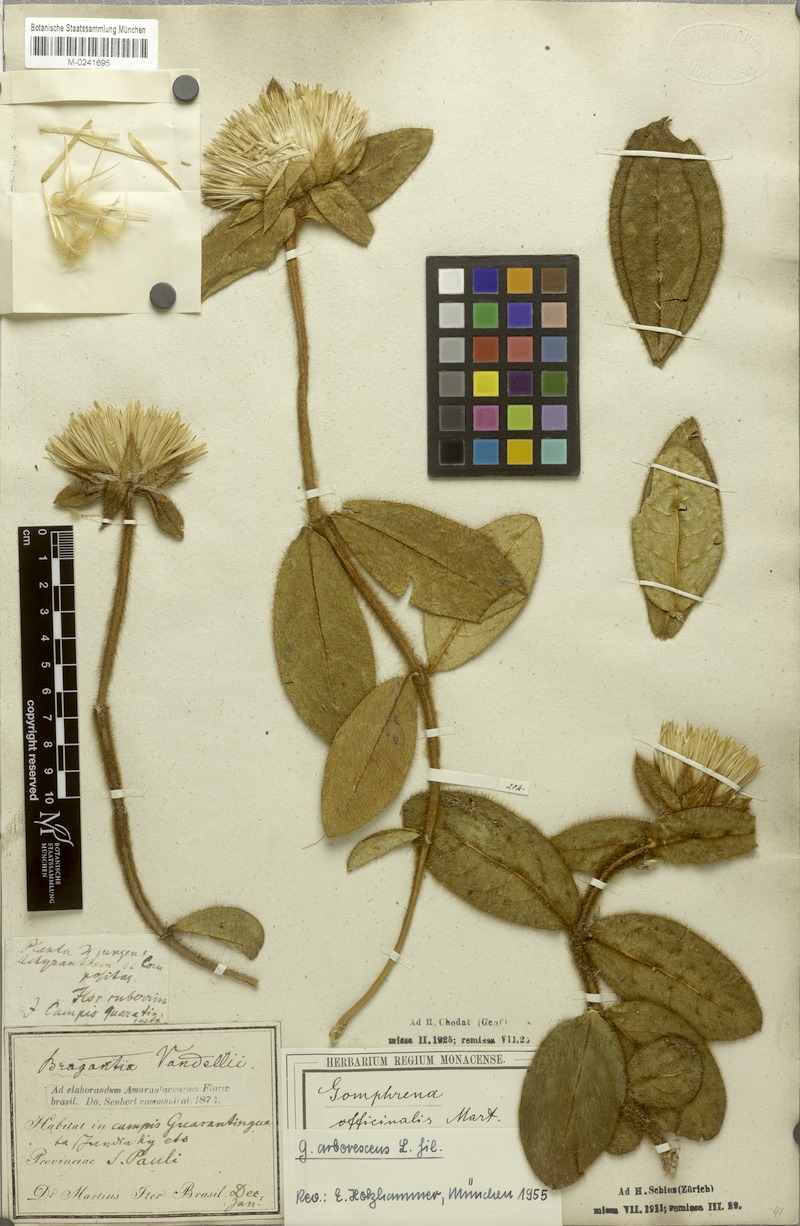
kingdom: Plantae
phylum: Tracheophyta
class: Magnoliopsida
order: Caryophyllales
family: Amaranthaceae
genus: Gomphrena
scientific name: Gomphrena arborescens
